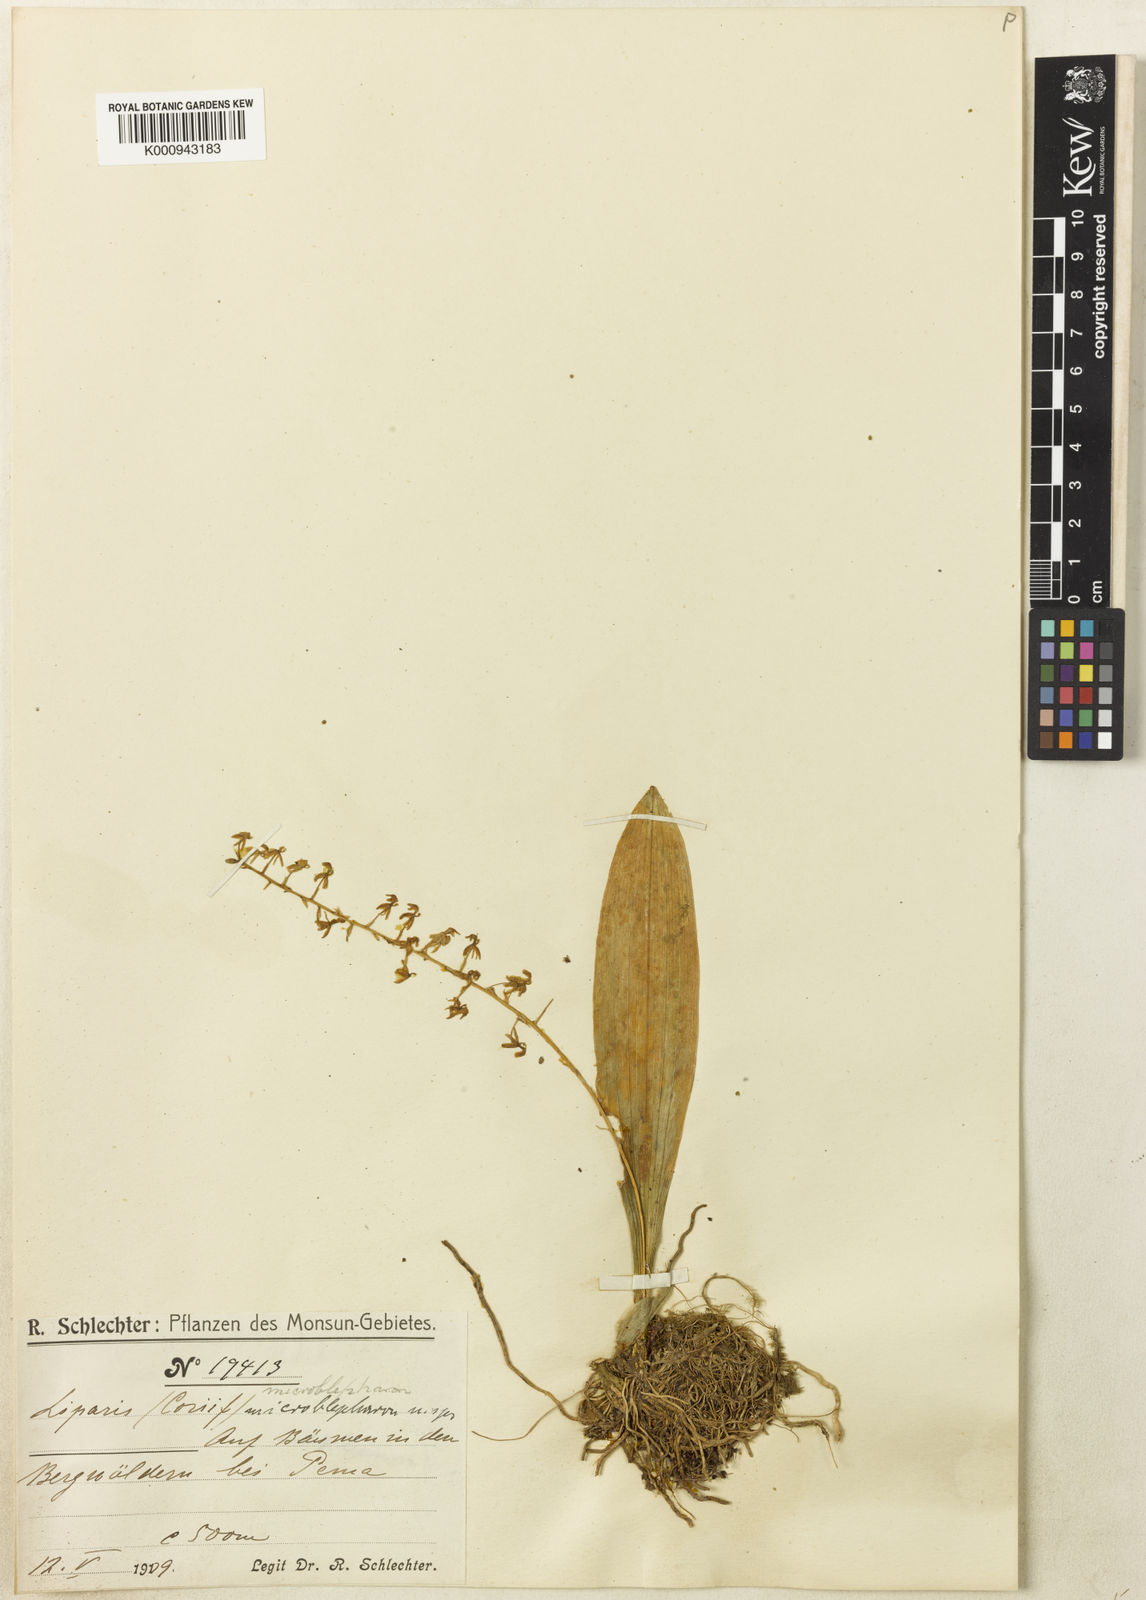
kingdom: Plantae
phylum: Tracheophyta
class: Liliopsida
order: Asparagales
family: Orchidaceae
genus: Liparis
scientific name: Liparis microblepharon
